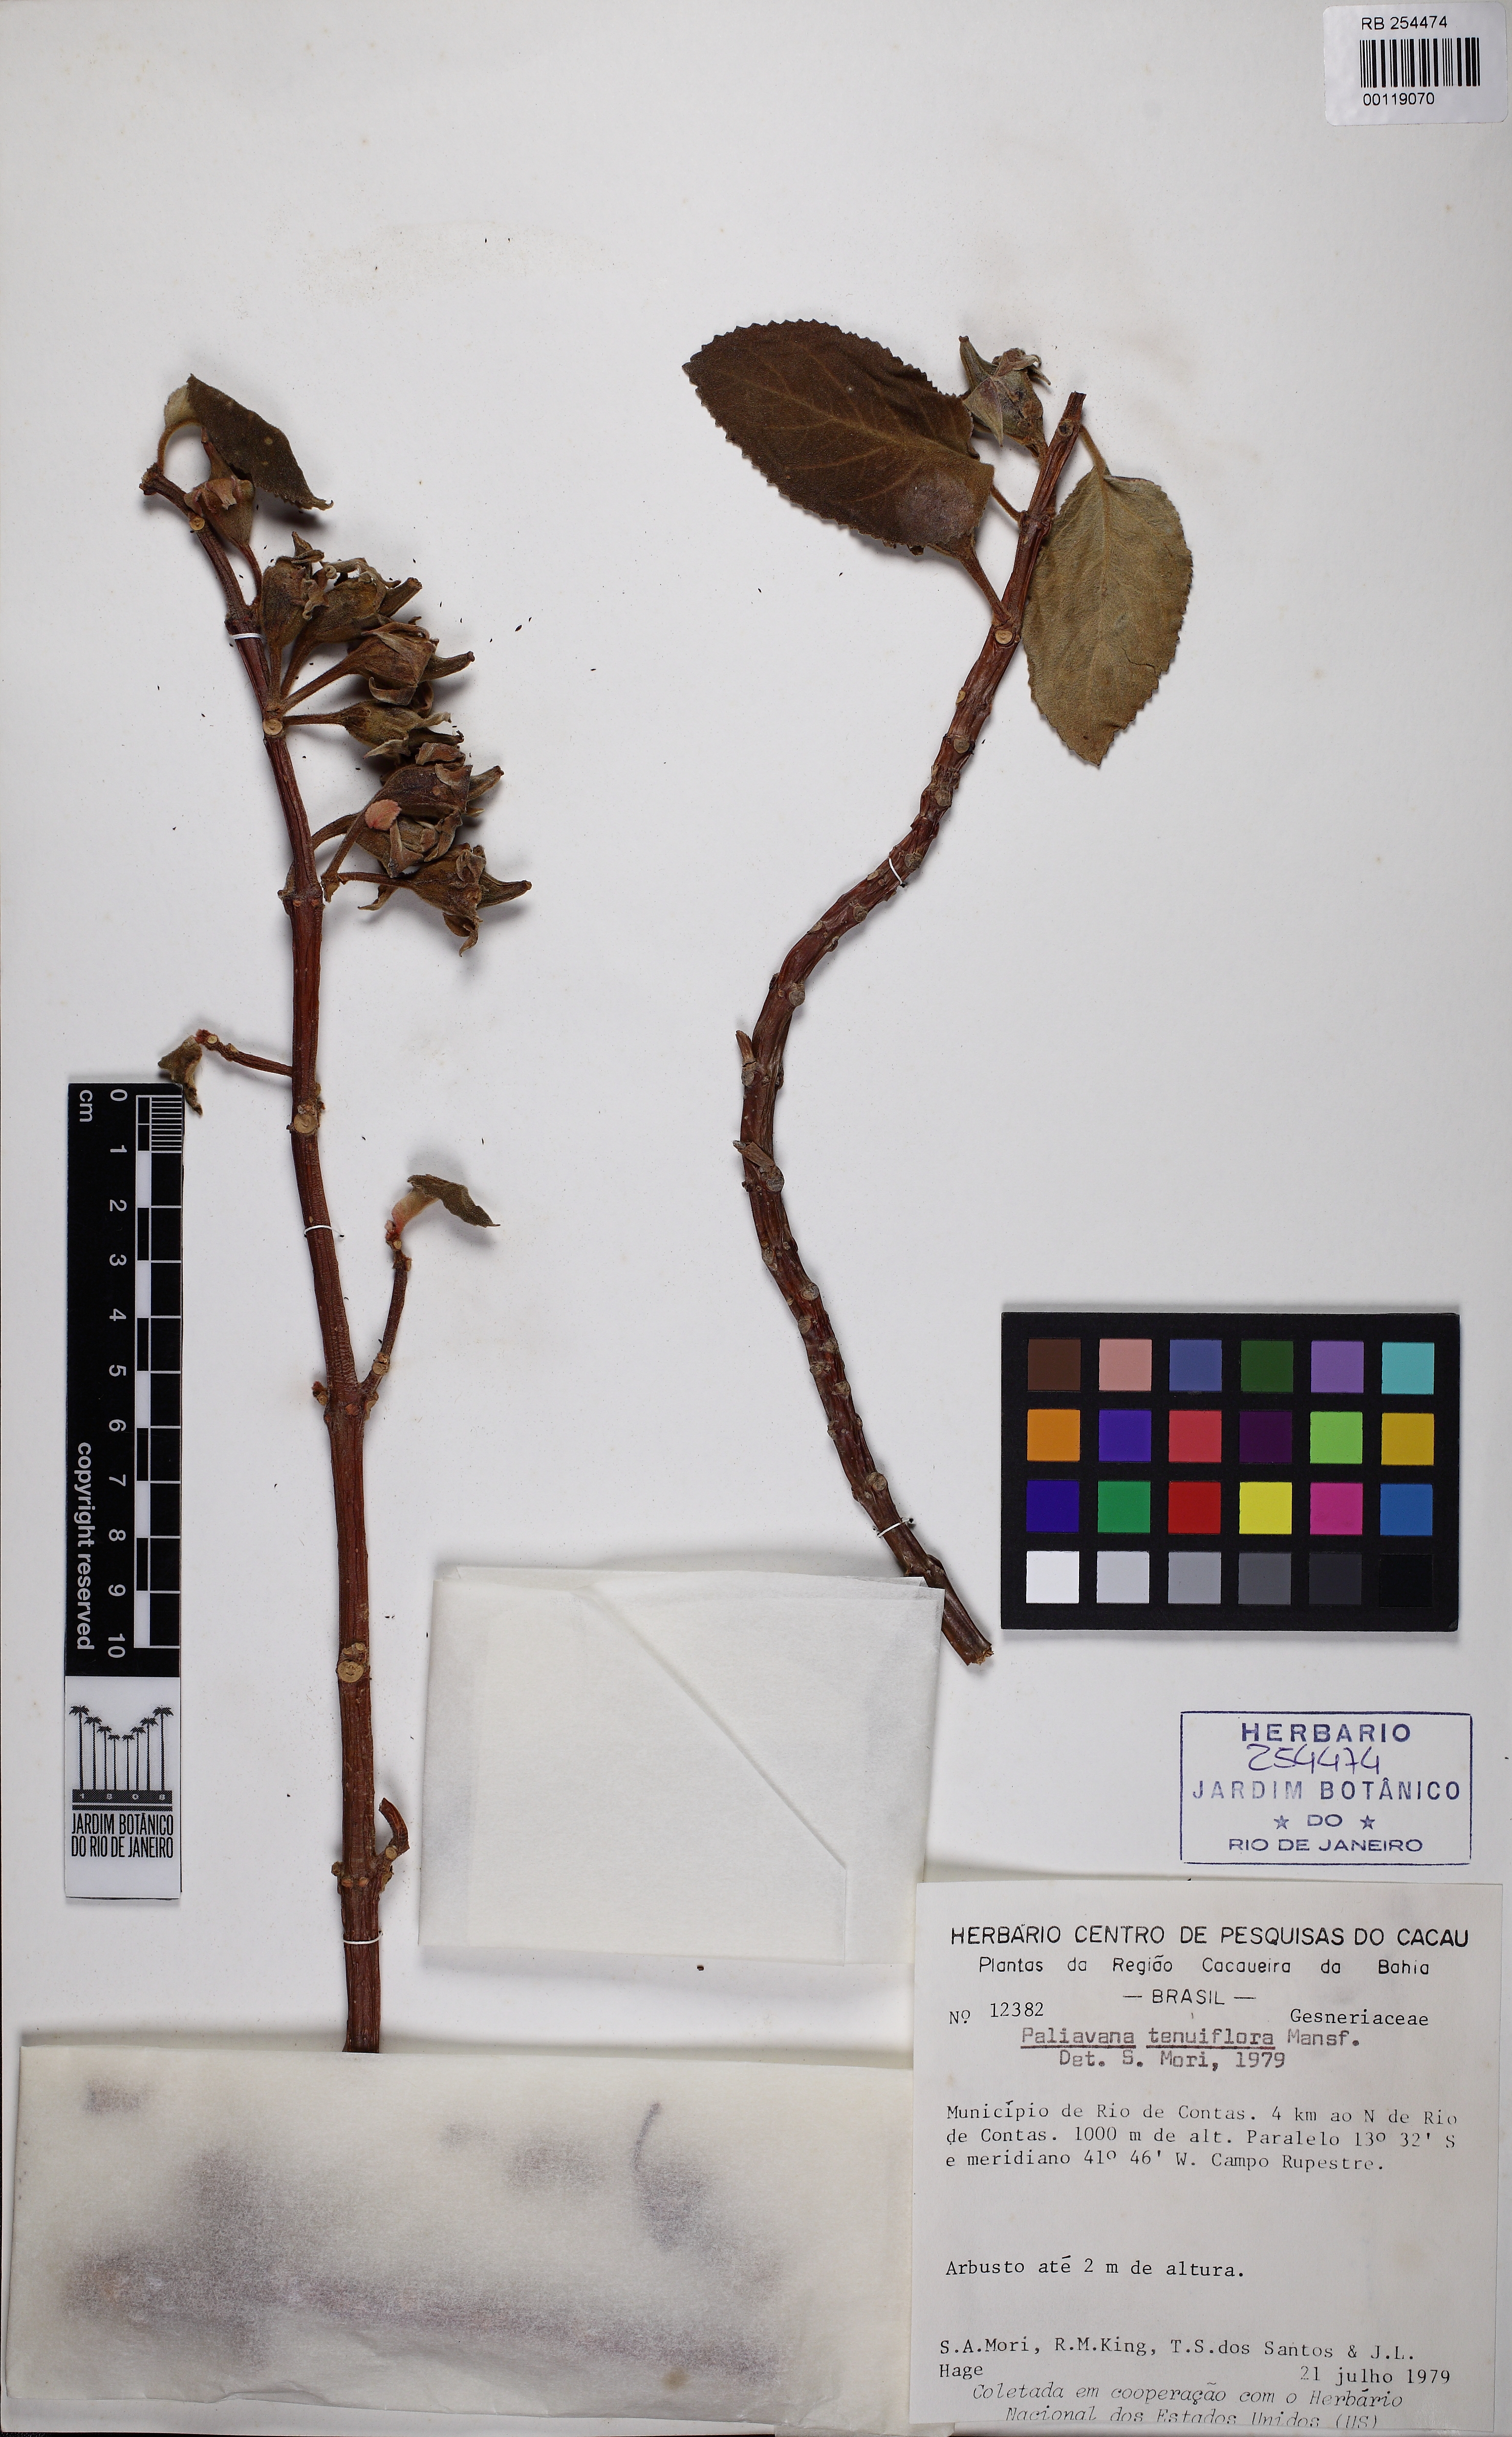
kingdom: Plantae
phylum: Tracheophyta
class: Magnoliopsida
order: Lamiales
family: Gesneriaceae
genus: Paliavana
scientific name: Paliavana tenuiflora
